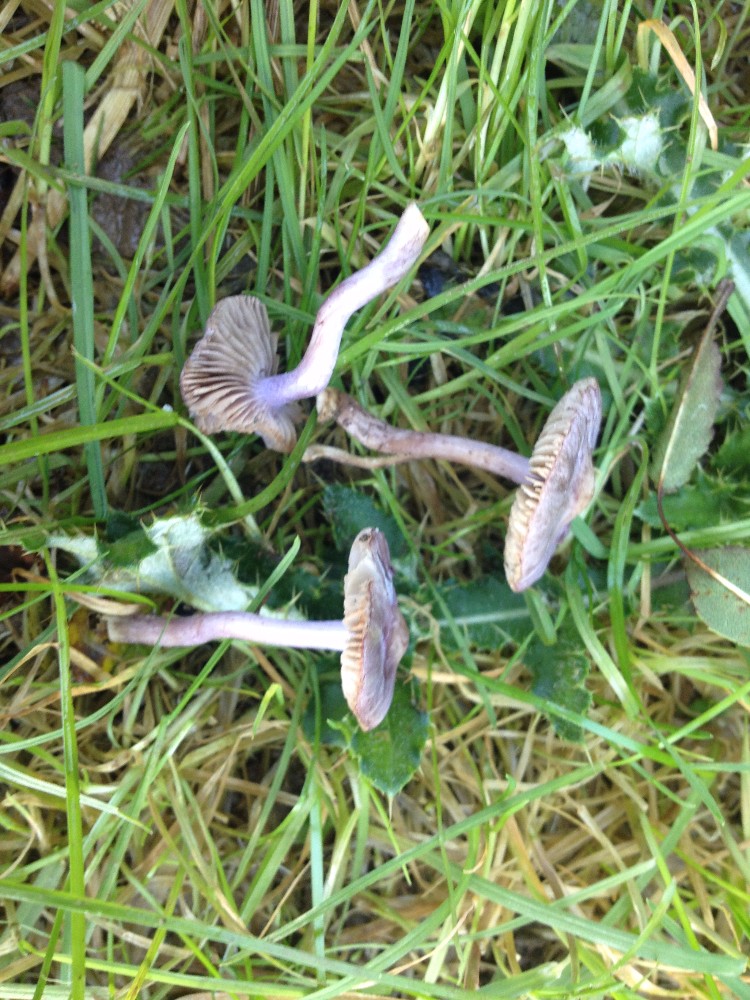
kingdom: Fungi
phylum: Basidiomycota
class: Agaricomycetes
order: Agaricales
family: Inocybaceae
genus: Inocybe
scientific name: Inocybe geophylla
